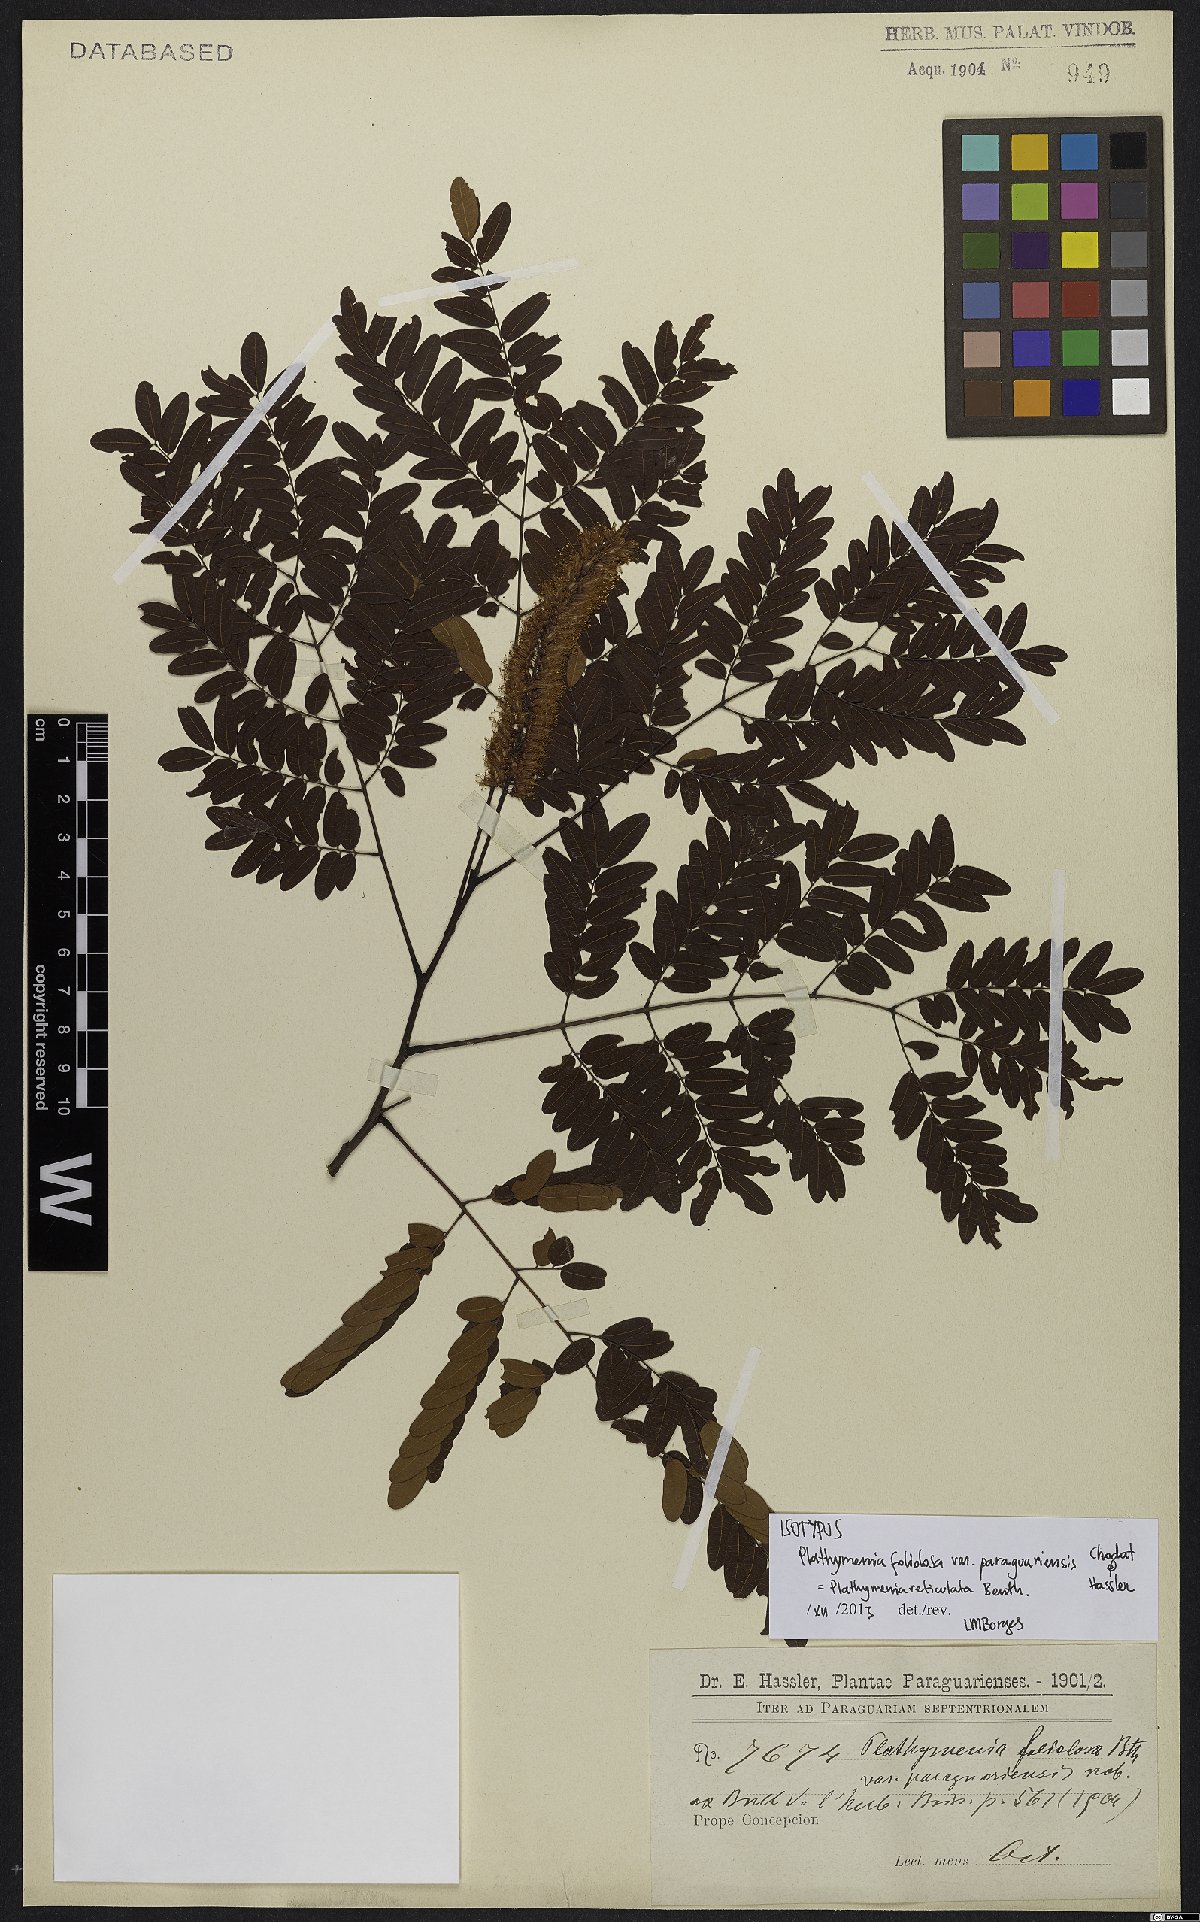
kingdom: Plantae
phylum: Tracheophyta
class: Magnoliopsida
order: Fabales
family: Fabaceae
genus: Plathymenia
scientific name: Plathymenia reticulata
